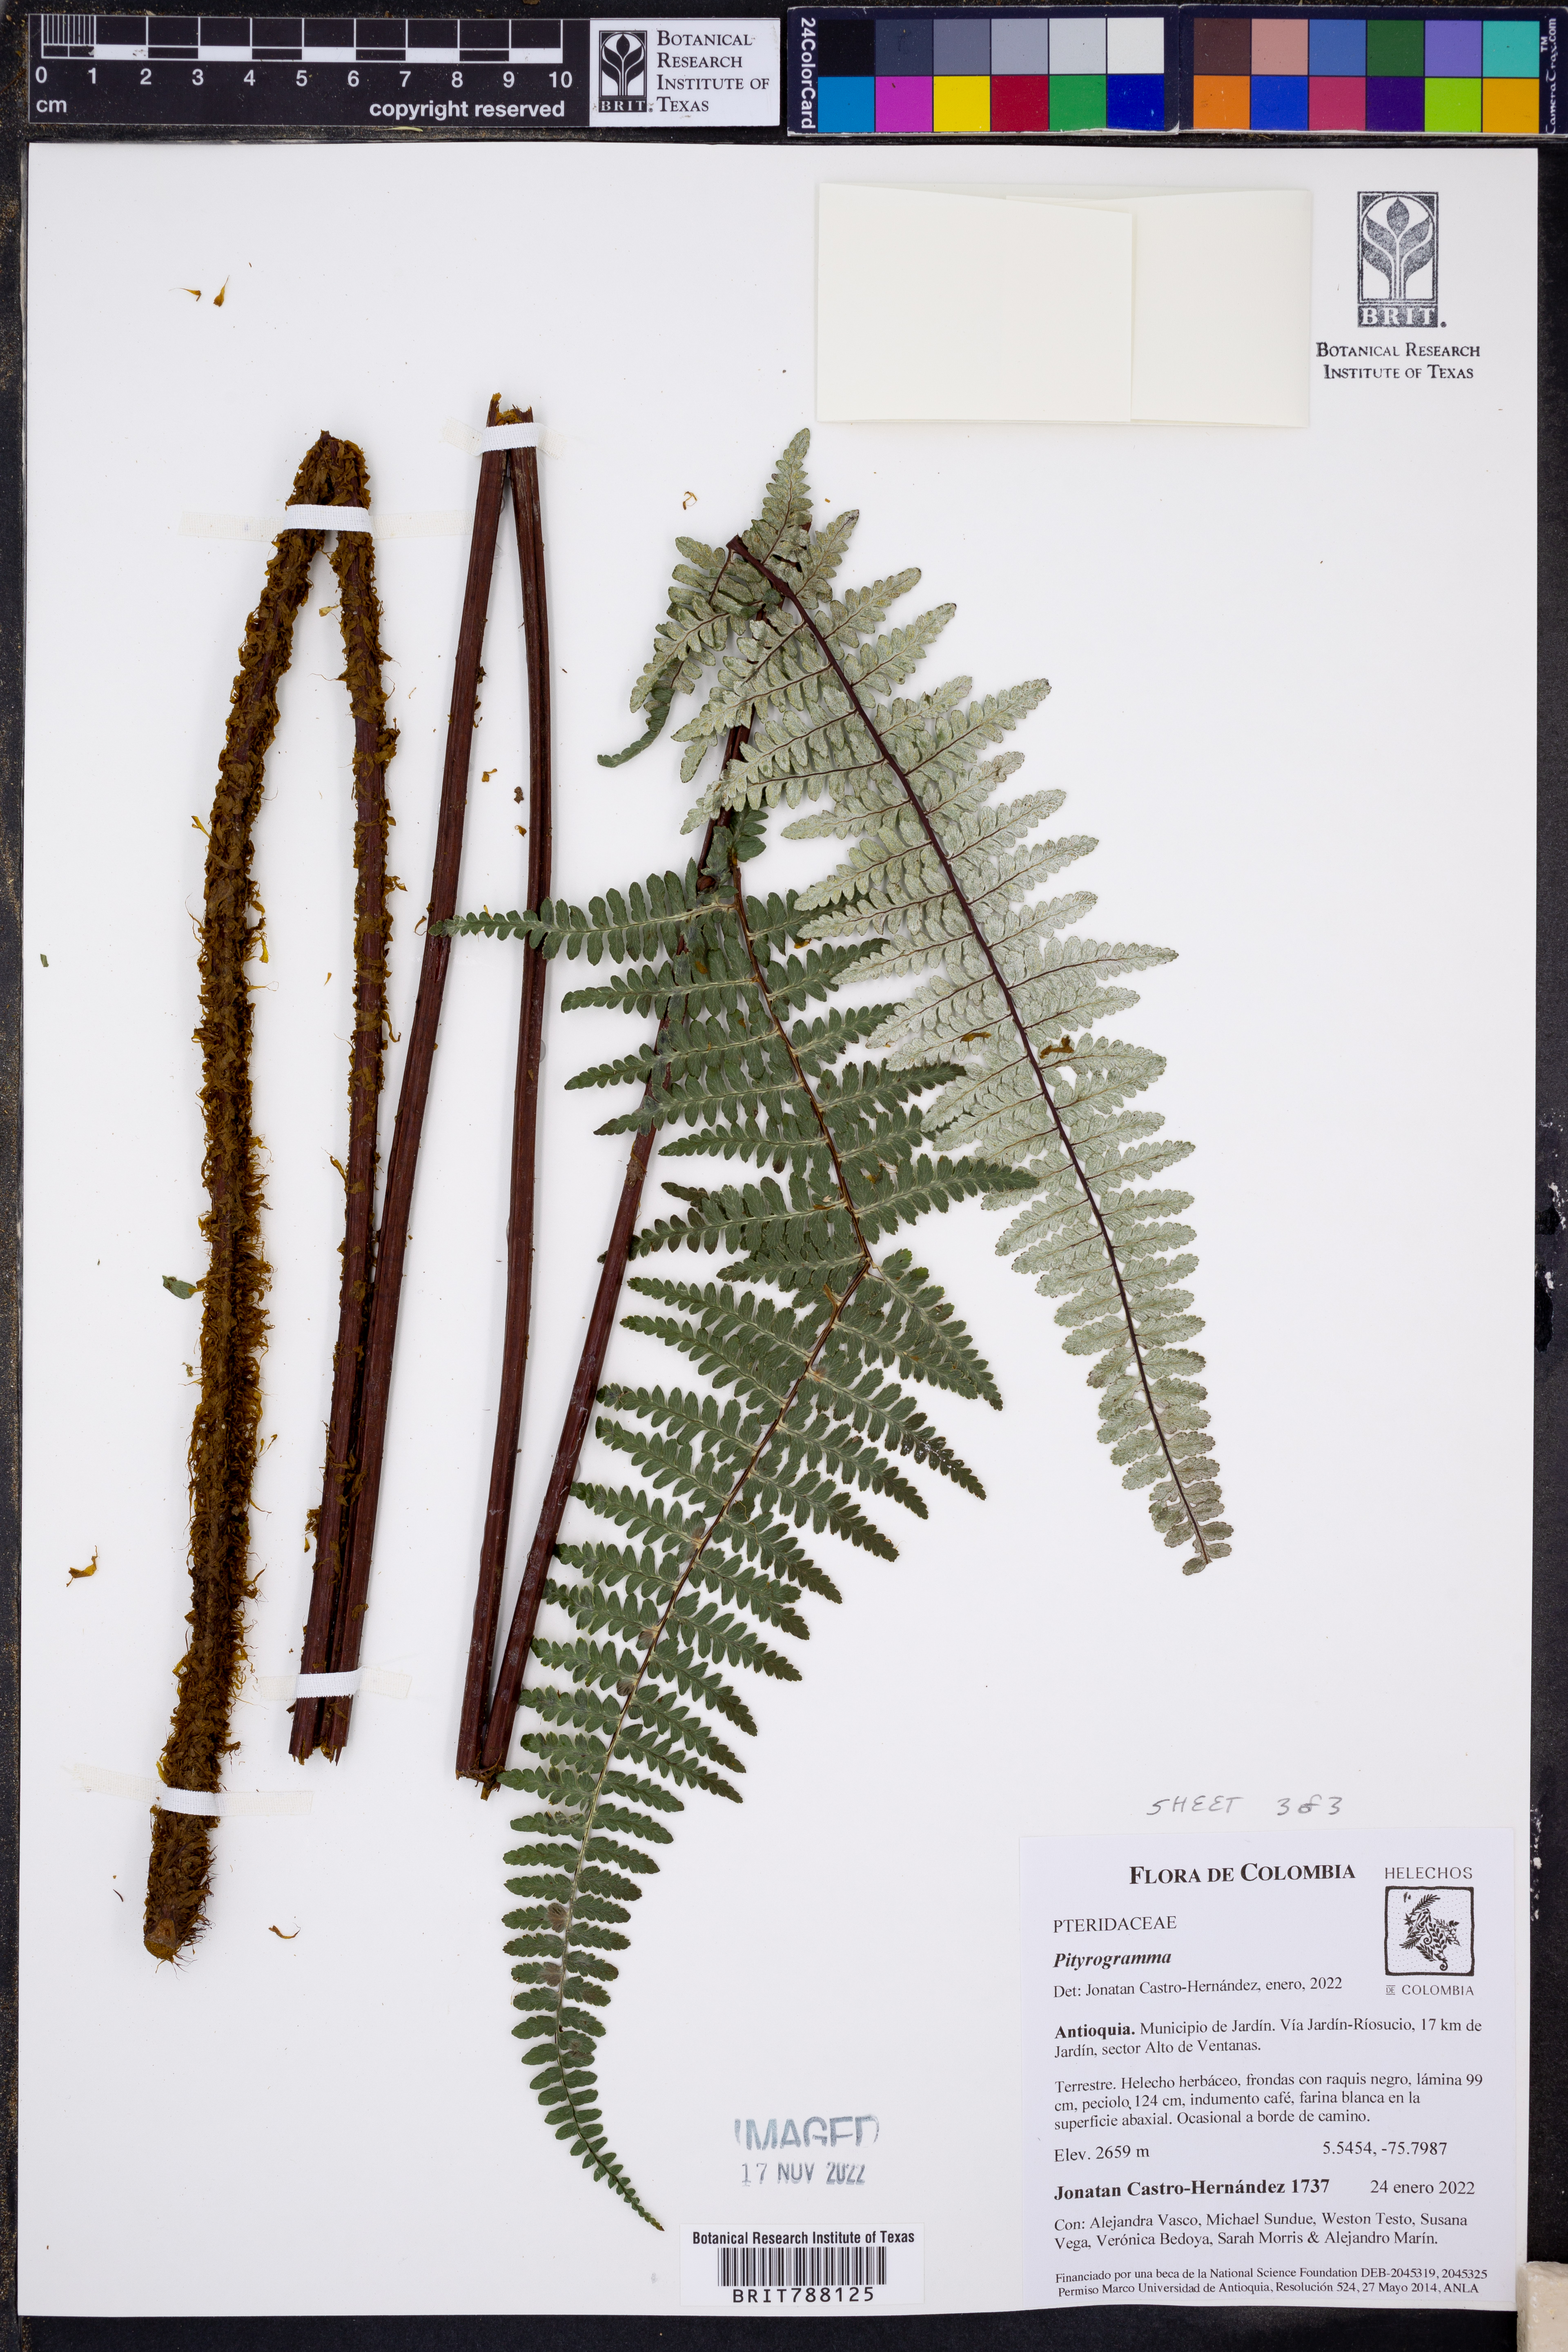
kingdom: Plantae
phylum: Tracheophyta
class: Polypodiopsida
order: Polypodiales
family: Pteridaceae
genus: Pityrogramma
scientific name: Pityrogramma
